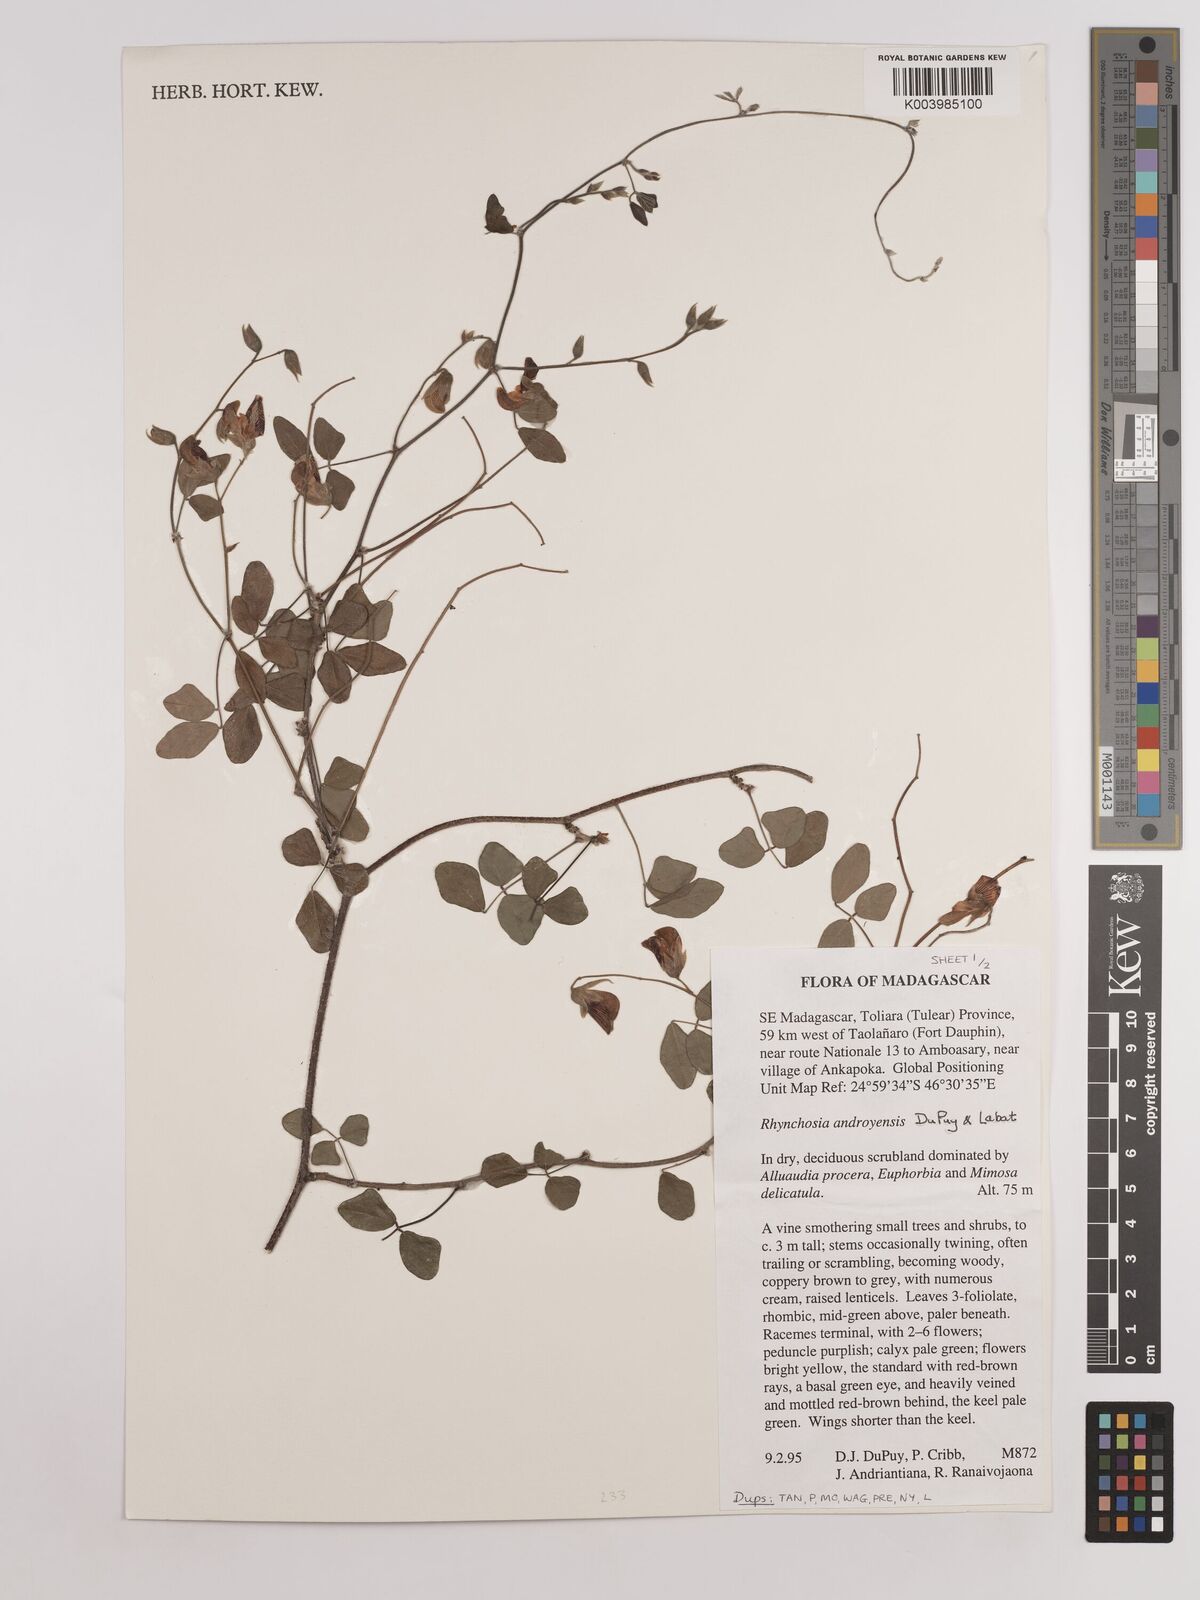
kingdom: Plantae
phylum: Tracheophyta
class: Magnoliopsida
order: Fabales
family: Fabaceae
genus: Rhynchosia
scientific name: Rhynchosia androyensis
